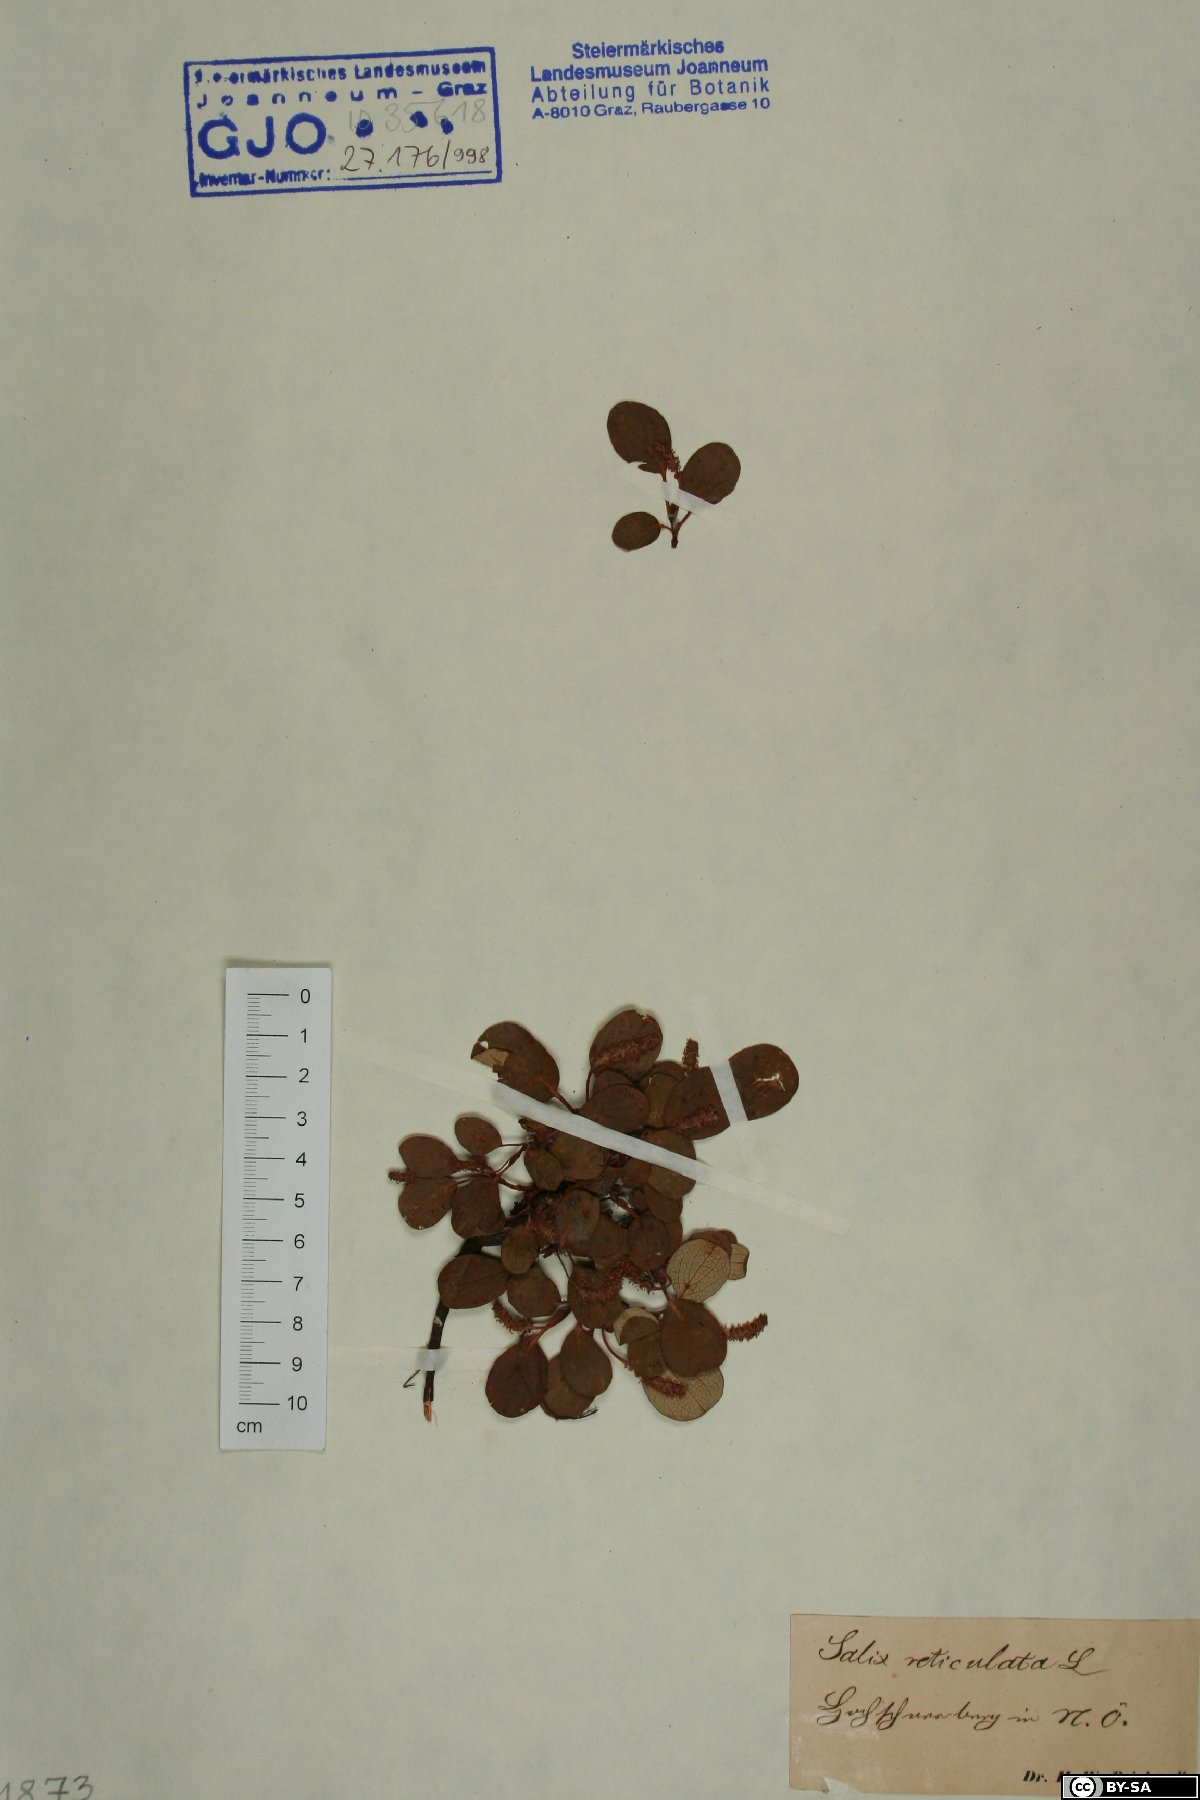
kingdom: Plantae
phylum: Tracheophyta
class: Magnoliopsida
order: Malpighiales
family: Salicaceae
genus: Salix
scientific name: Salix reticulata
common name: Net-leaved willow
